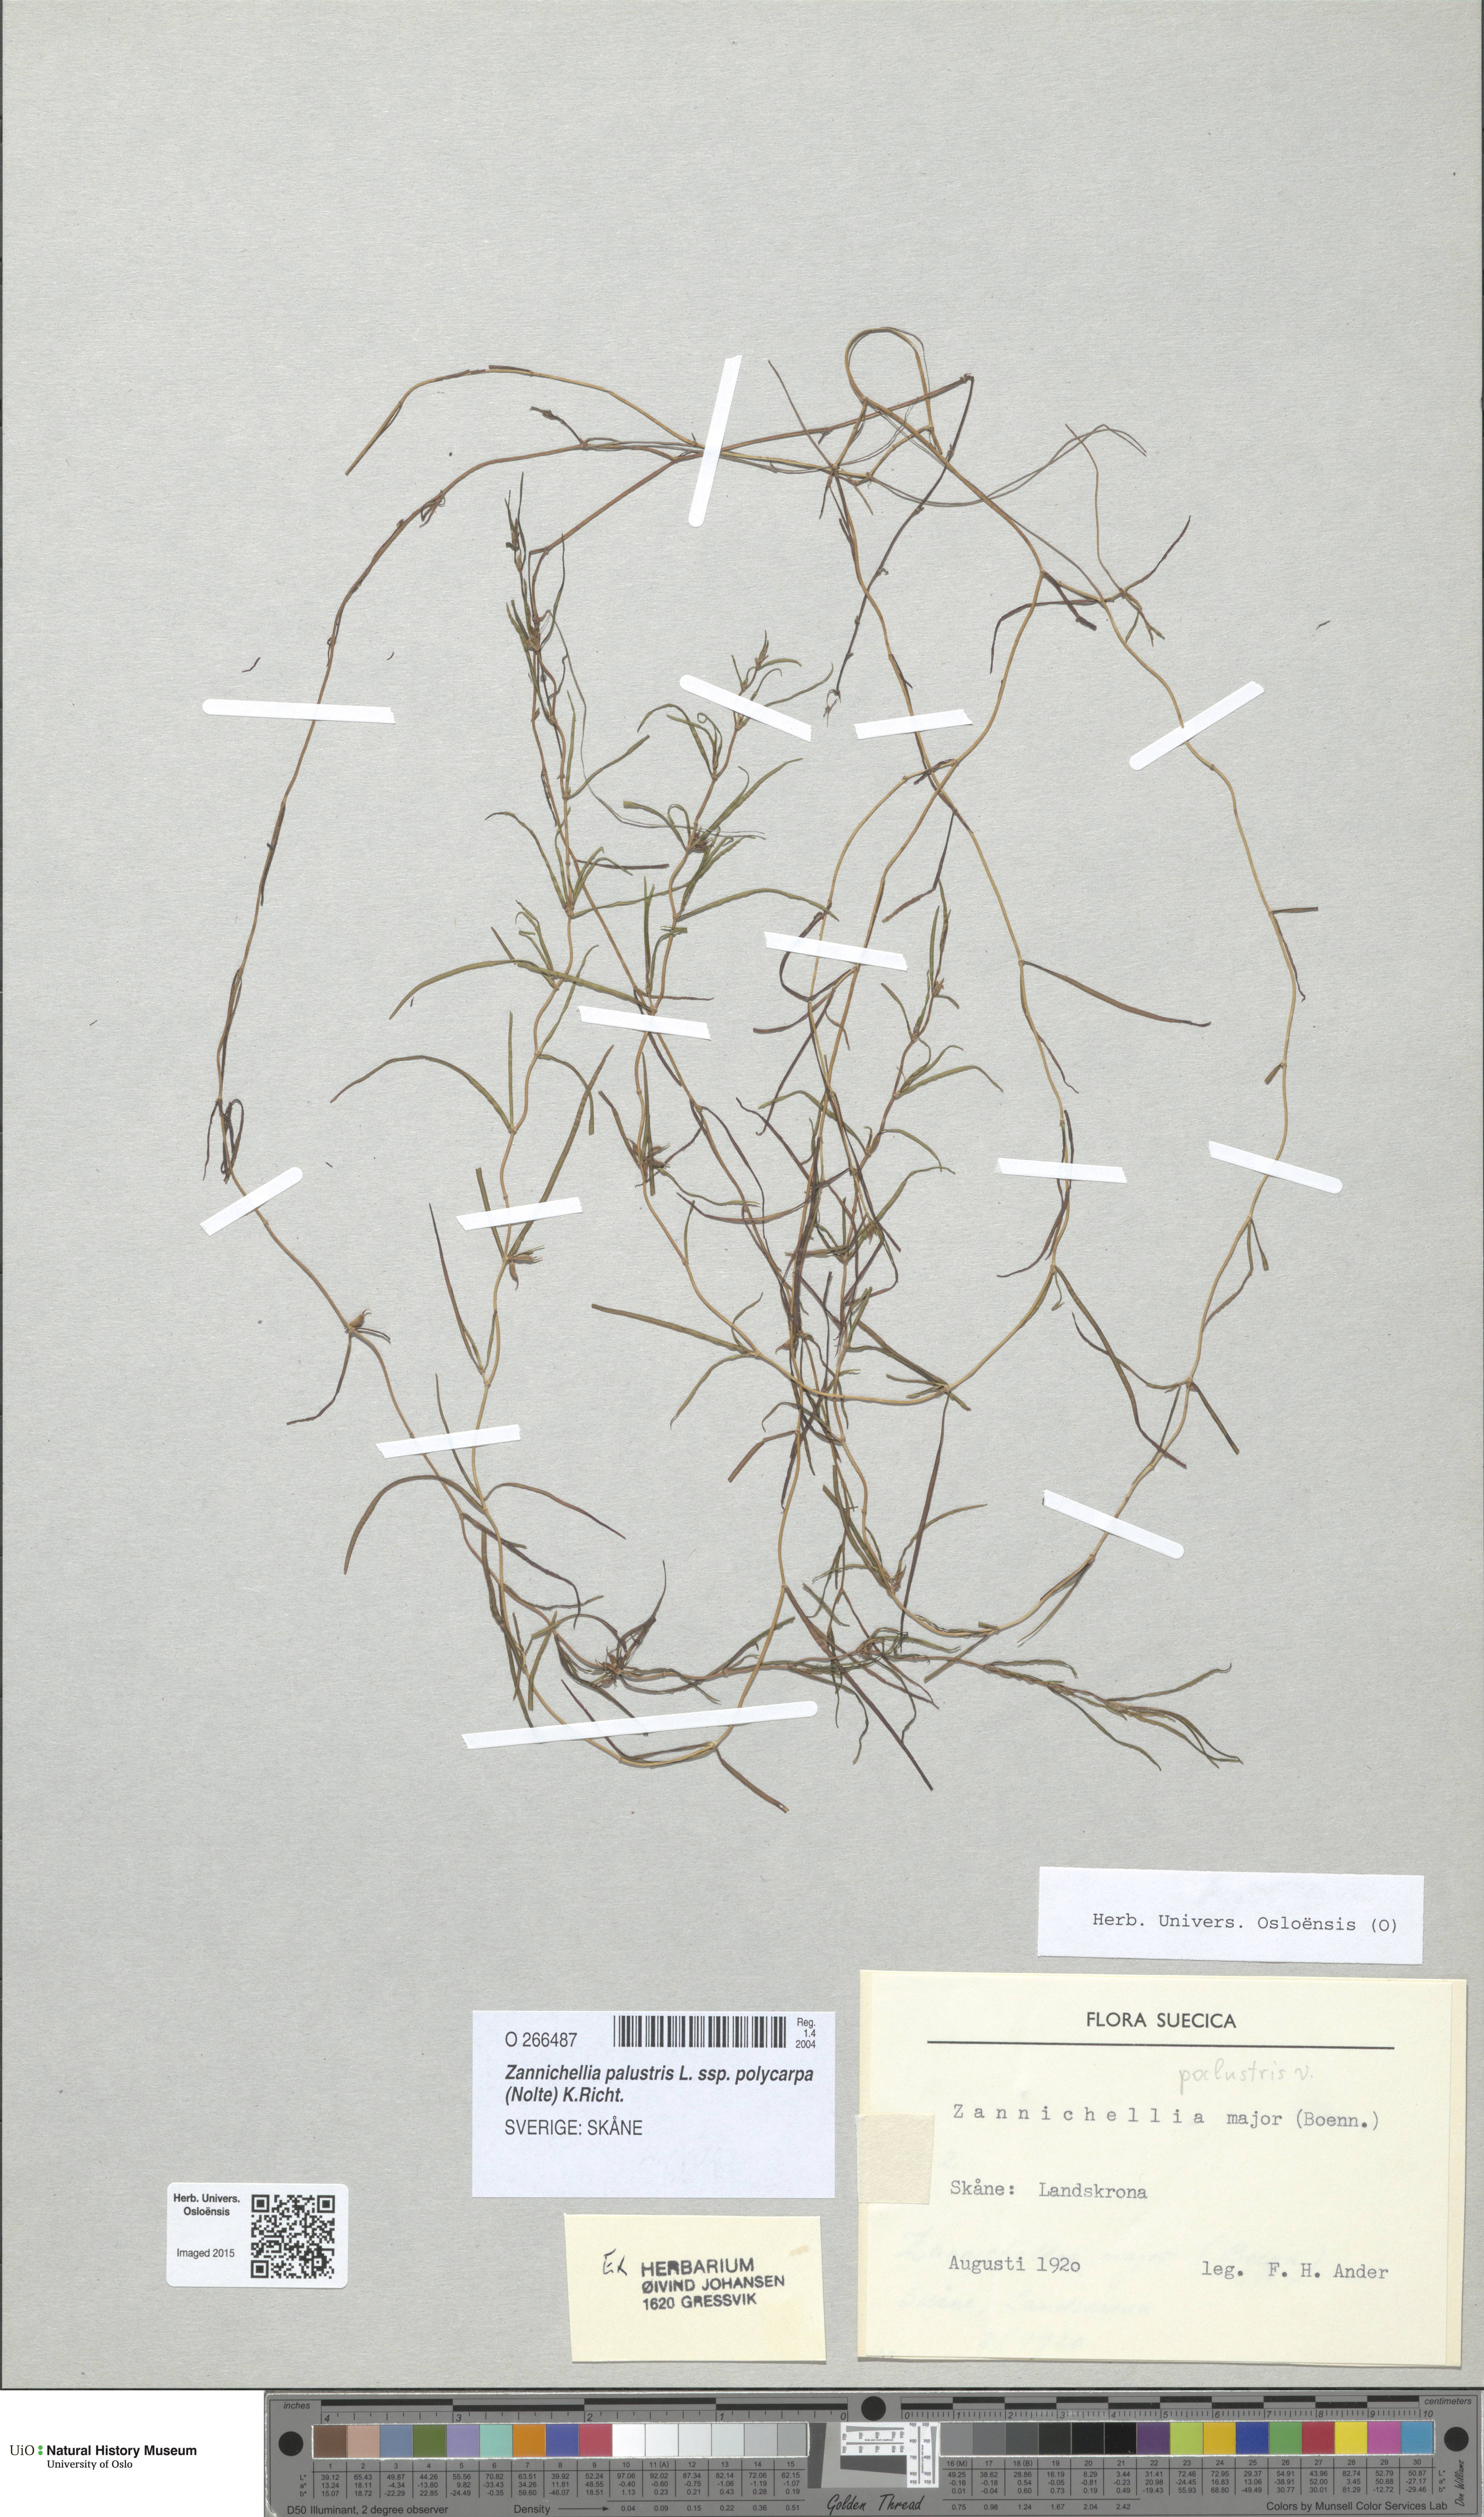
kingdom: Plantae
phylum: Tracheophyta
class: Liliopsida
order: Alismatales
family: Potamogetonaceae
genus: Zannichellia
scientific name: Zannichellia palustris
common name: Horned pondweed
